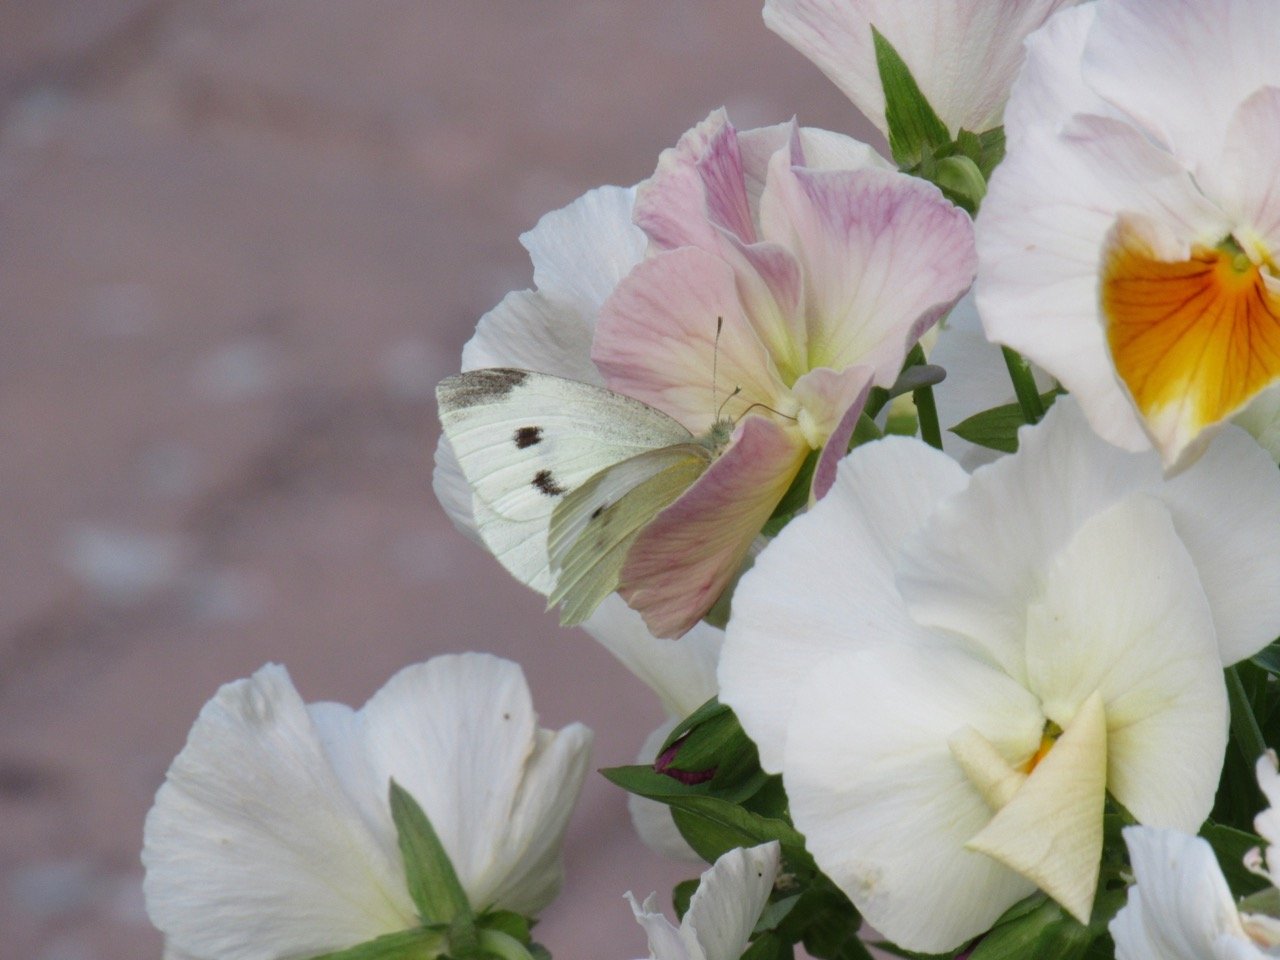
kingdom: Animalia
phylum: Arthropoda
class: Insecta
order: Lepidoptera
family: Pieridae
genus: Pieris
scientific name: Pieris rapae
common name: Cabbage White
